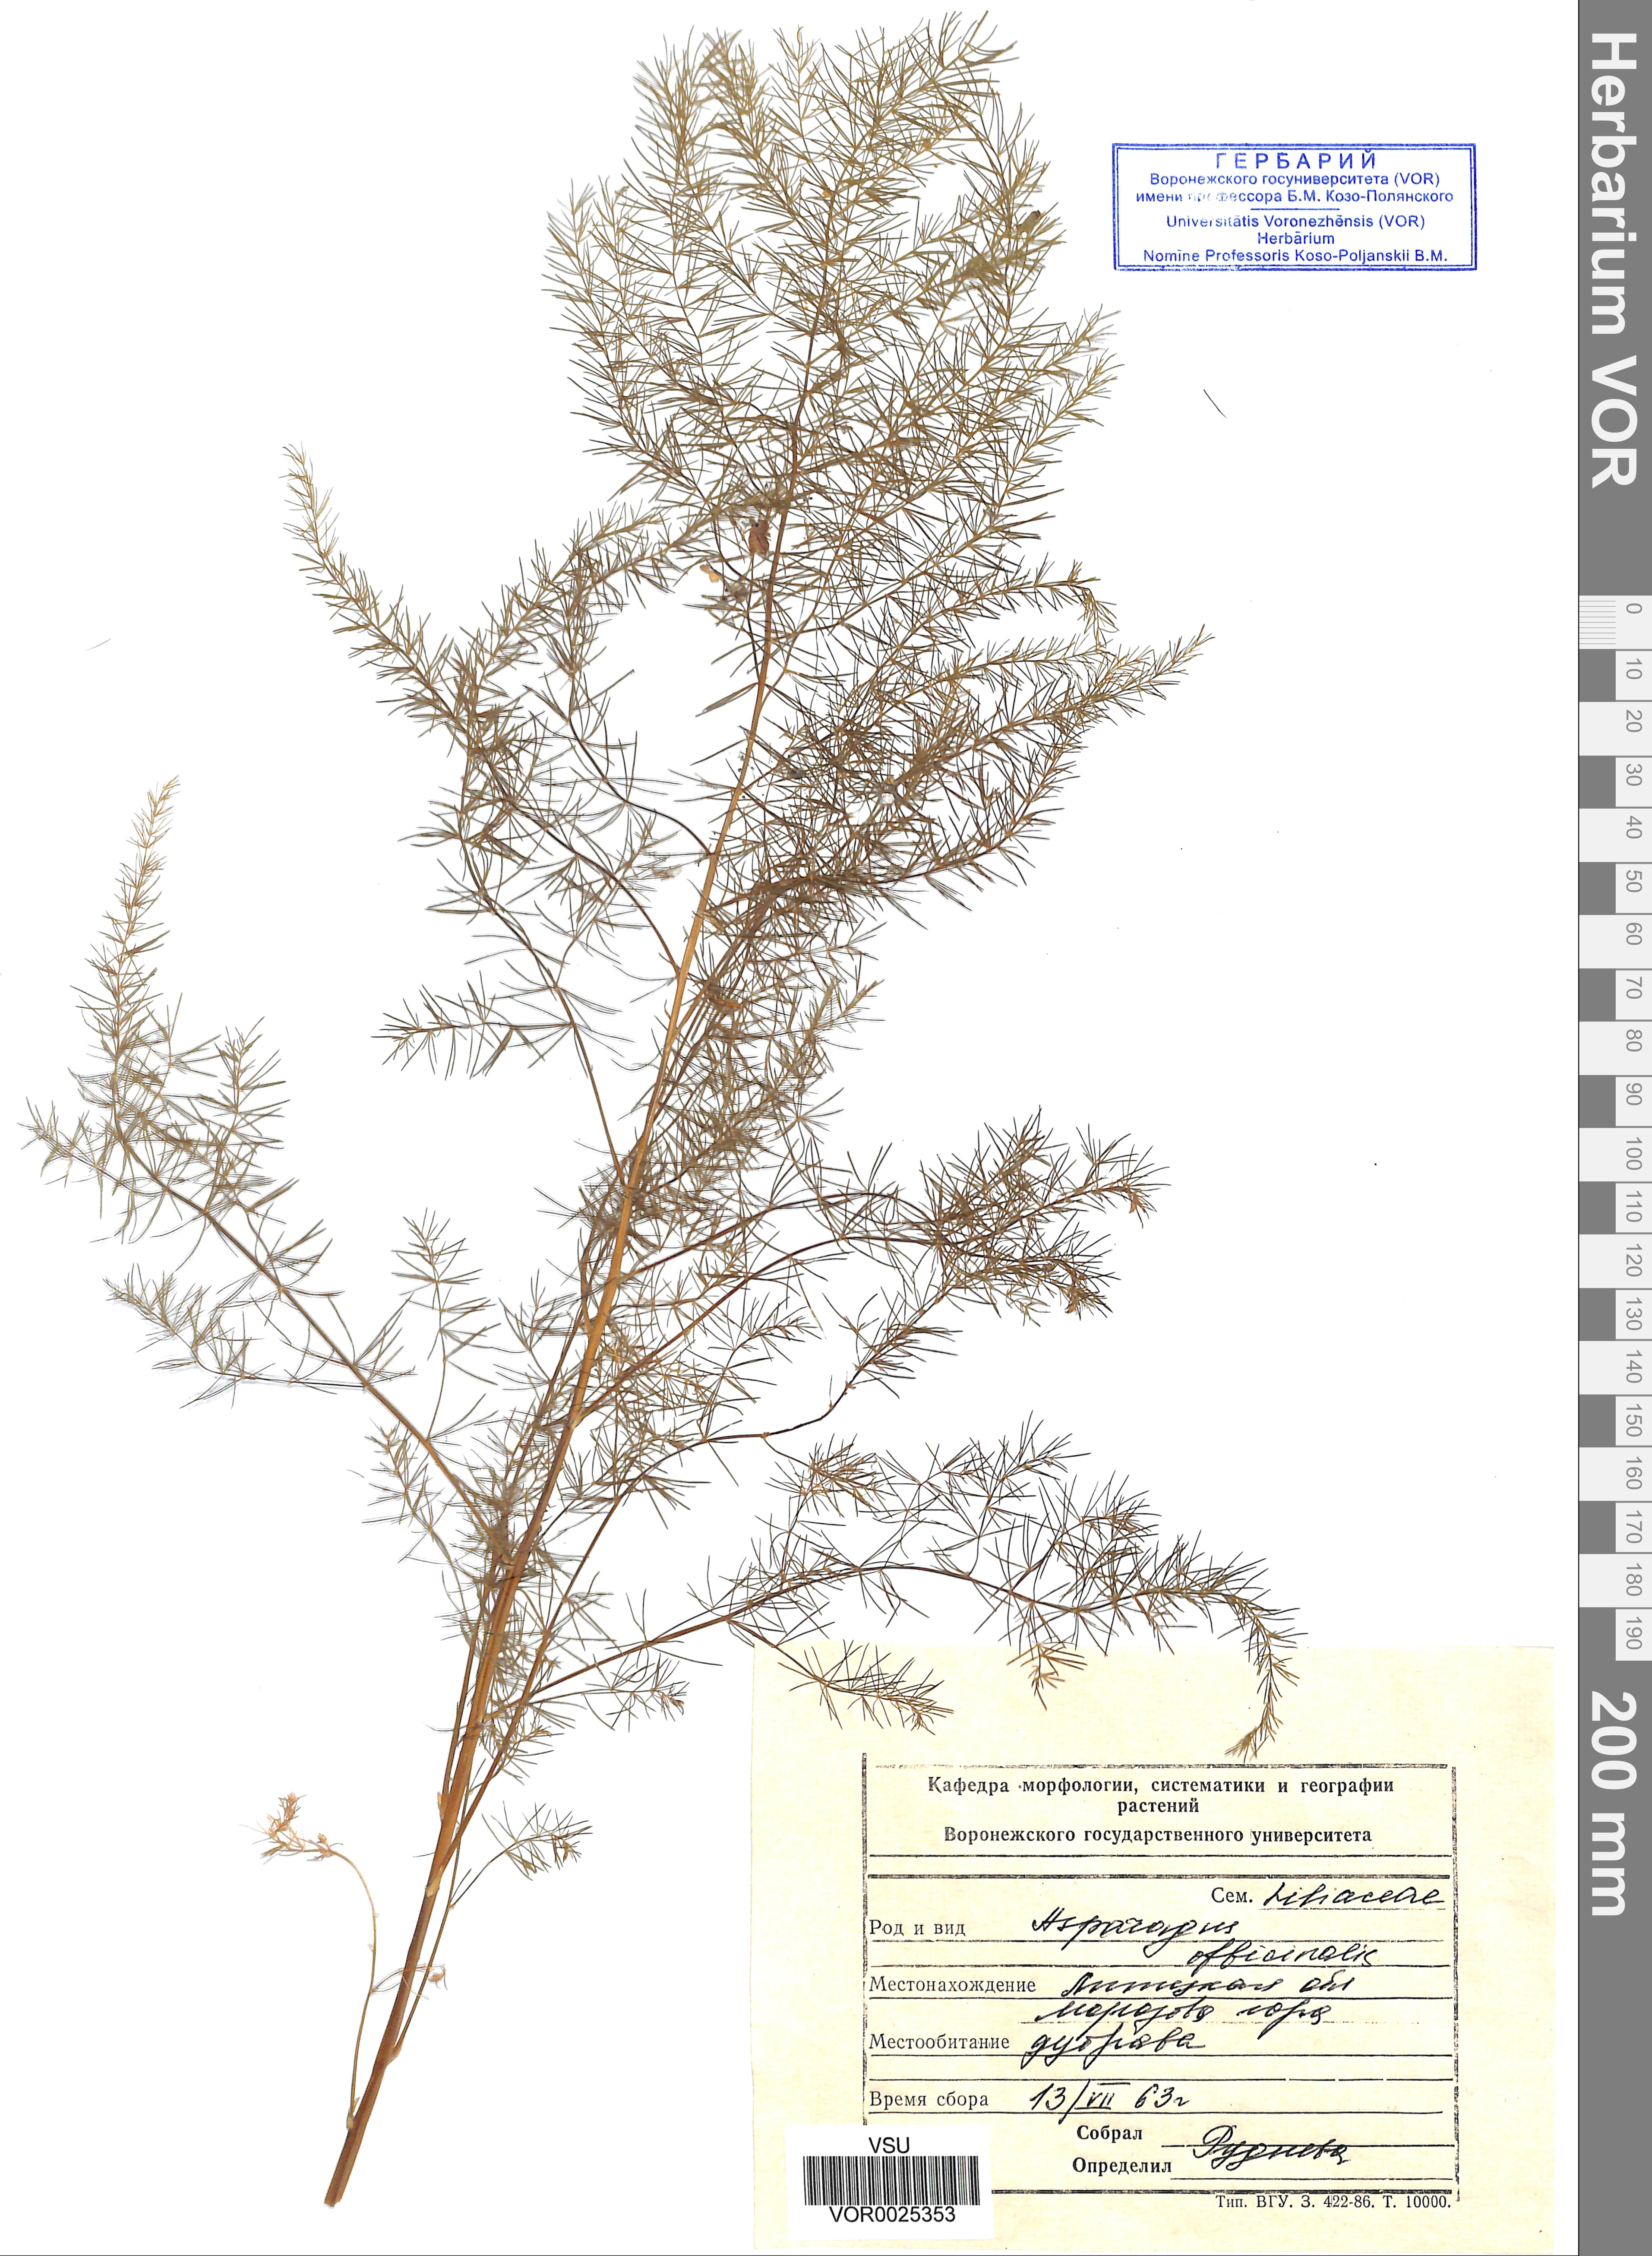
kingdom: Plantae
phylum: Tracheophyta
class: Liliopsida
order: Asparagales
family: Asparagaceae
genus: Asparagus
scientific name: Asparagus officinalis
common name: Garden asparagus
